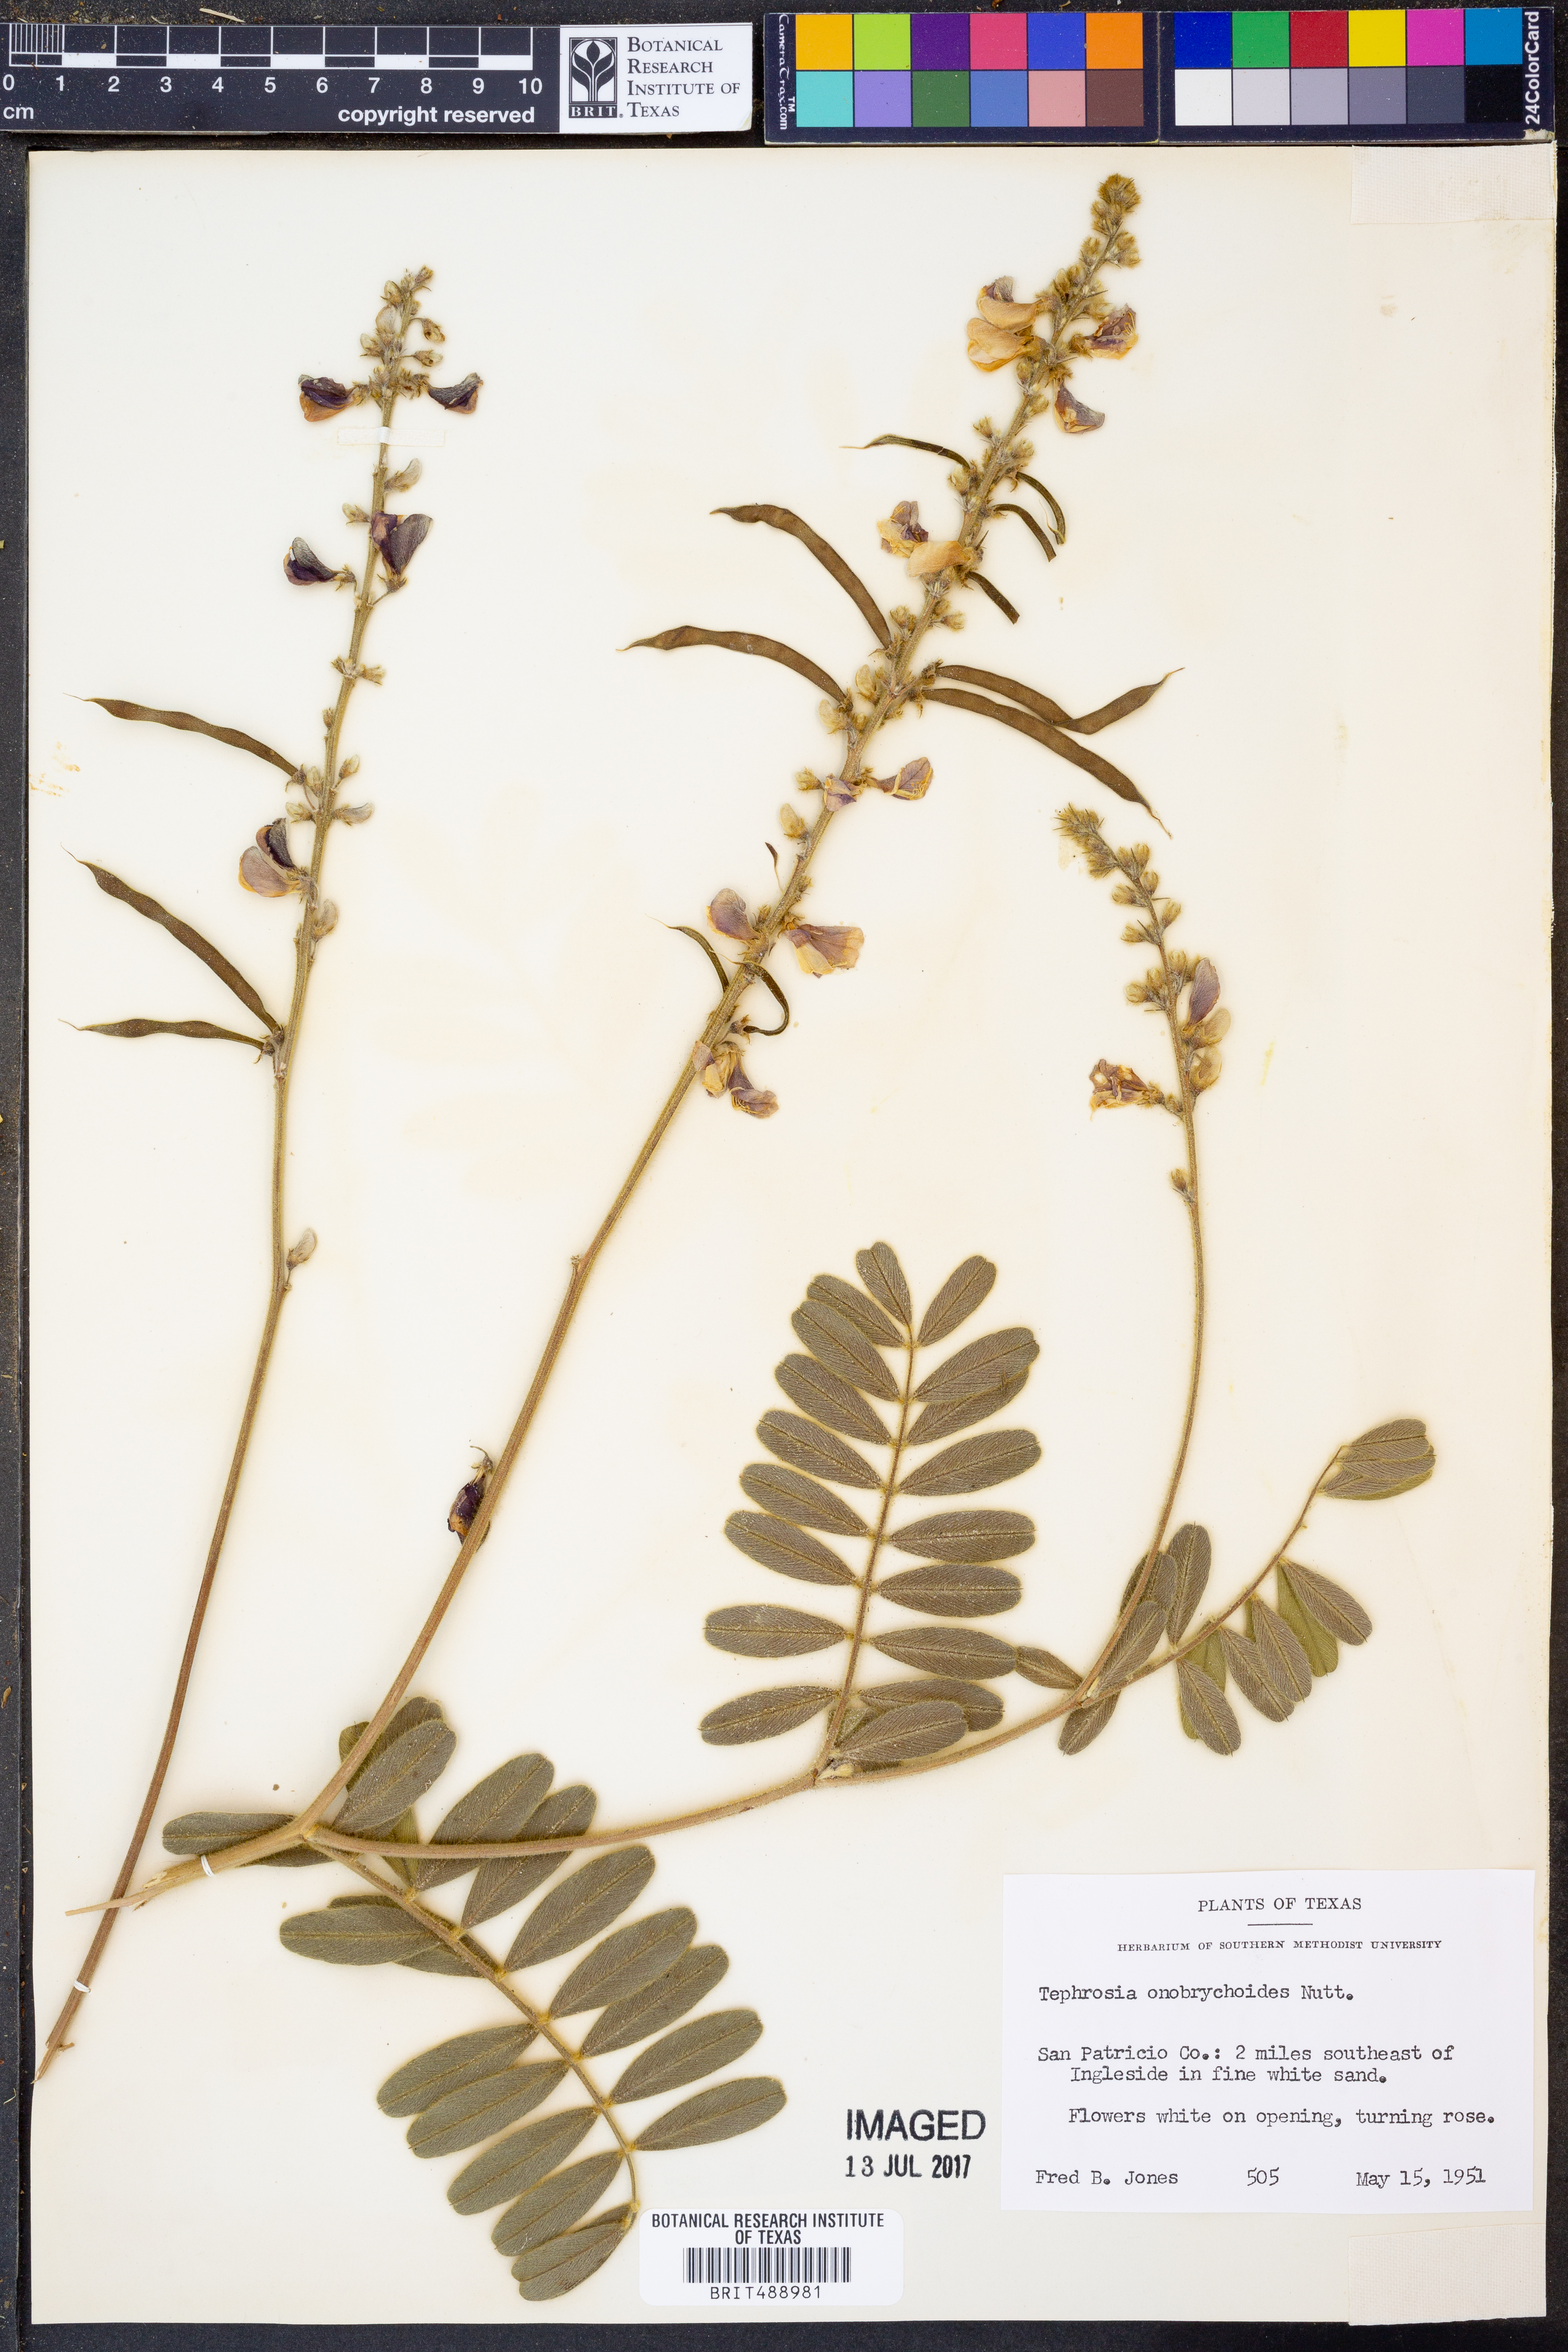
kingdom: Plantae
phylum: Tracheophyta
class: Magnoliopsida
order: Fabales
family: Fabaceae
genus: Tephrosia
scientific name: Tephrosia onobrychoides
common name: Multi-bloom hoary-pea
